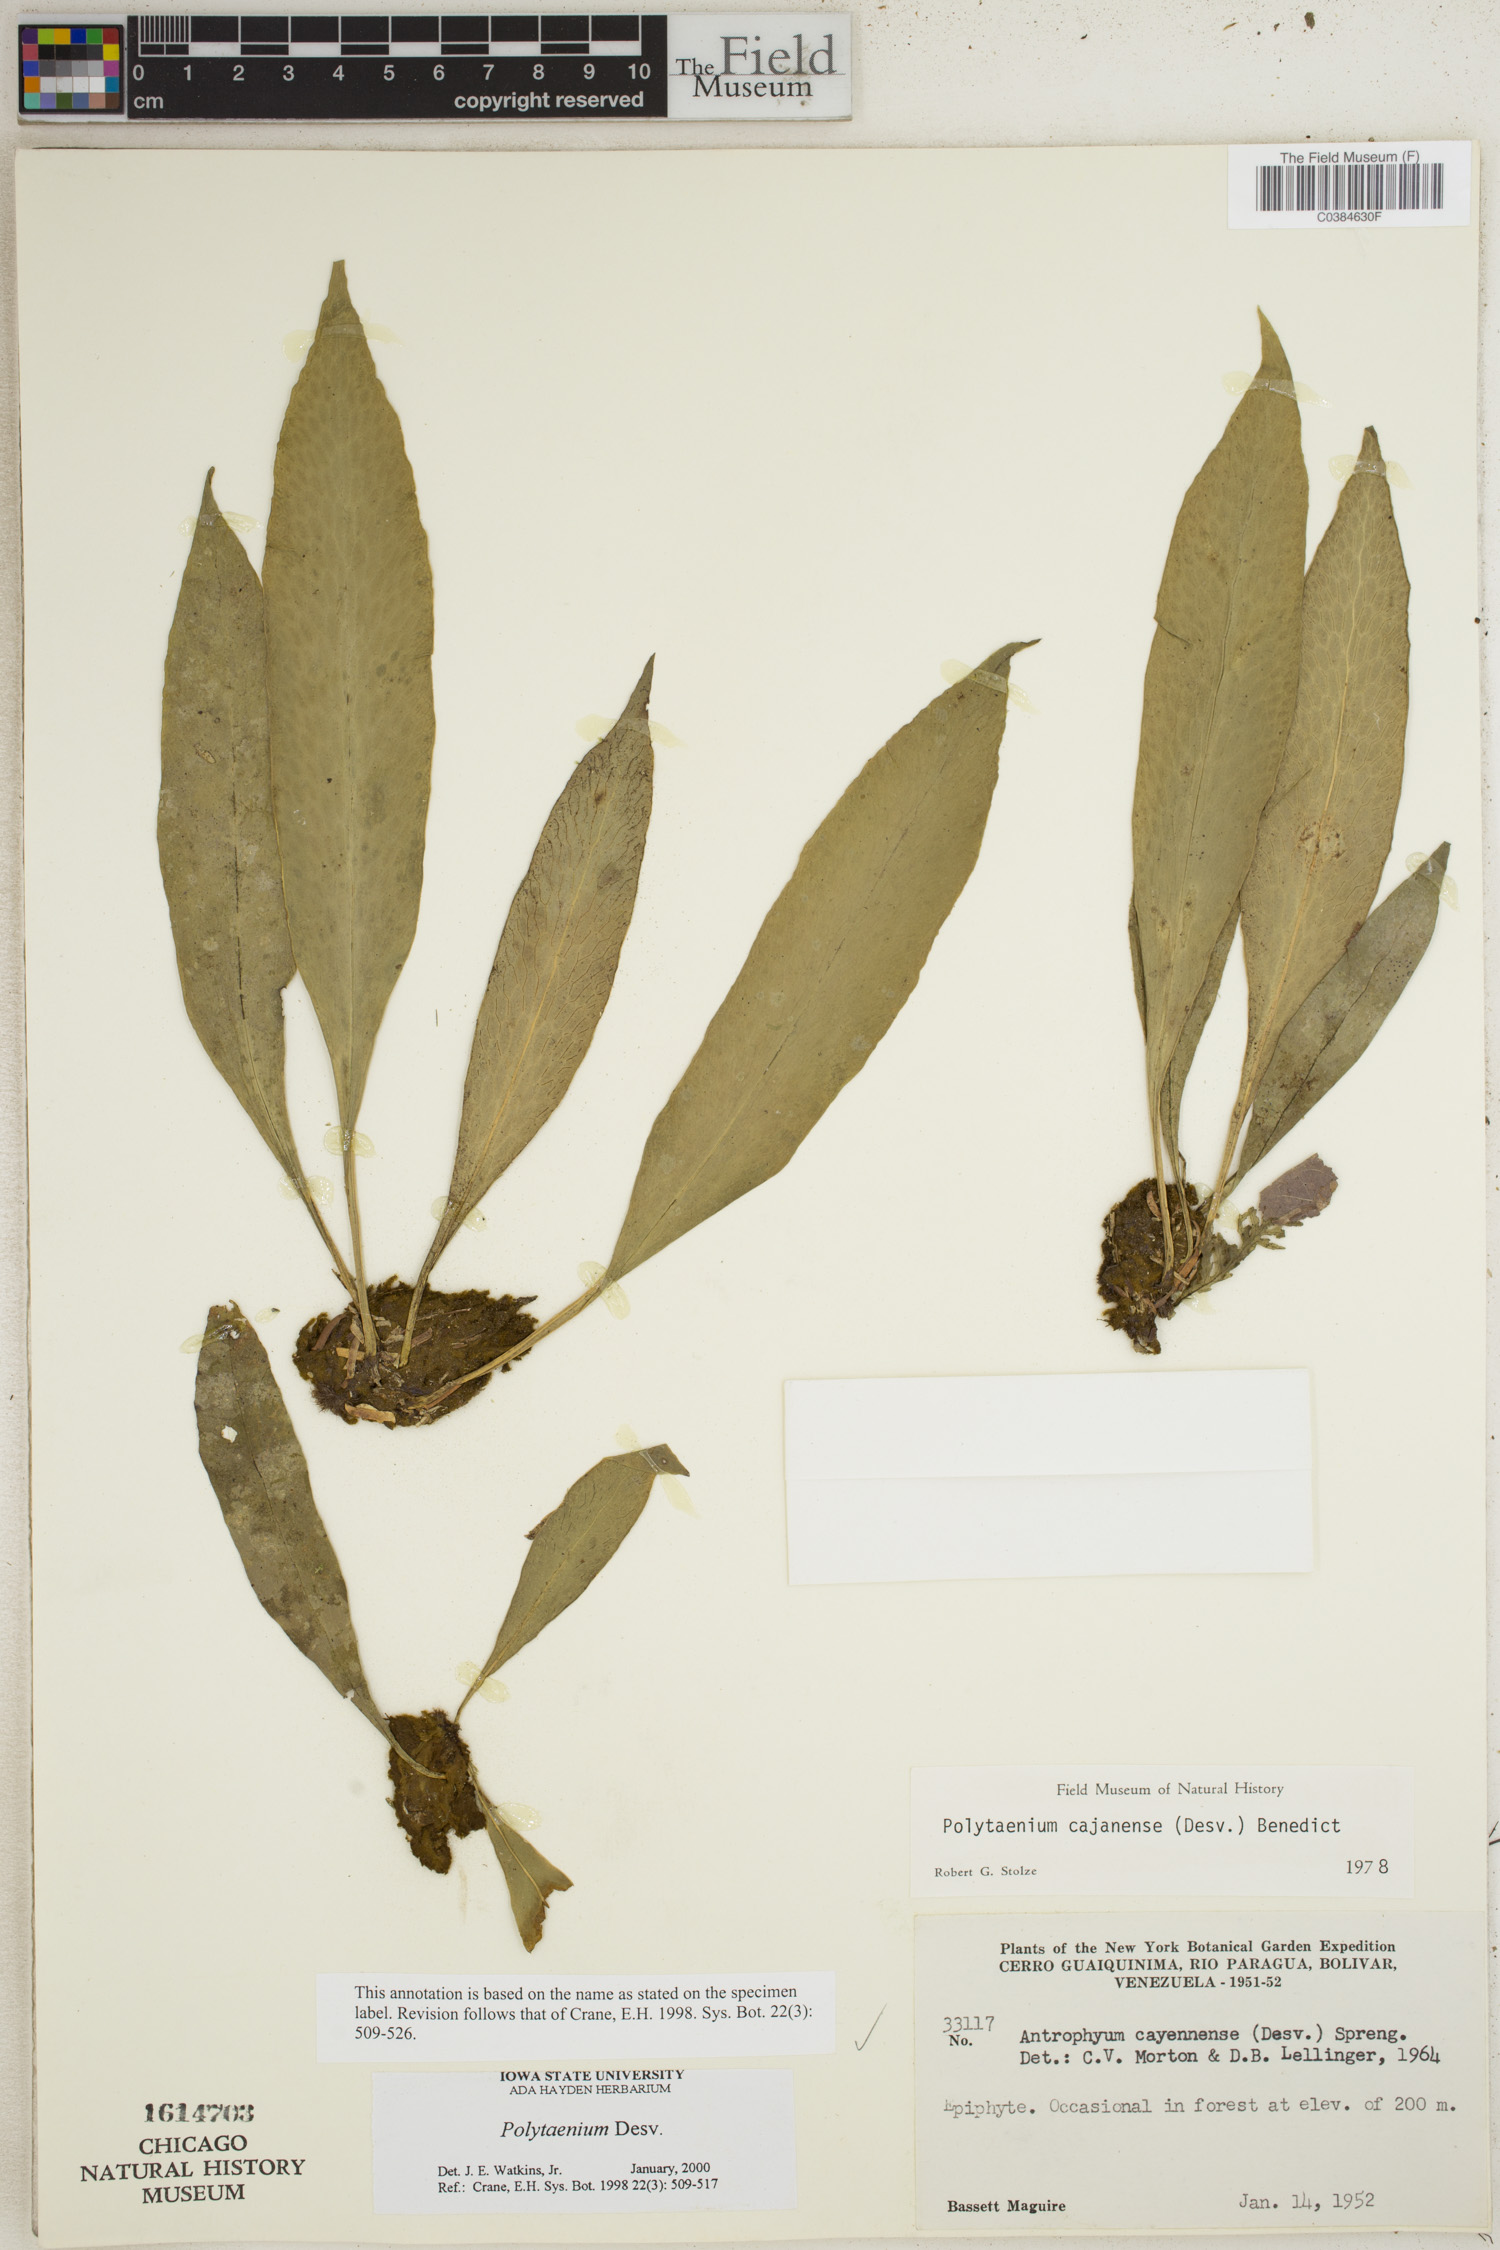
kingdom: Plantae
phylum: Tracheophyta
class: Polypodiopsida
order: Polypodiales
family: Pteridaceae
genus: Polytaenium
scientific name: Polytaenium
